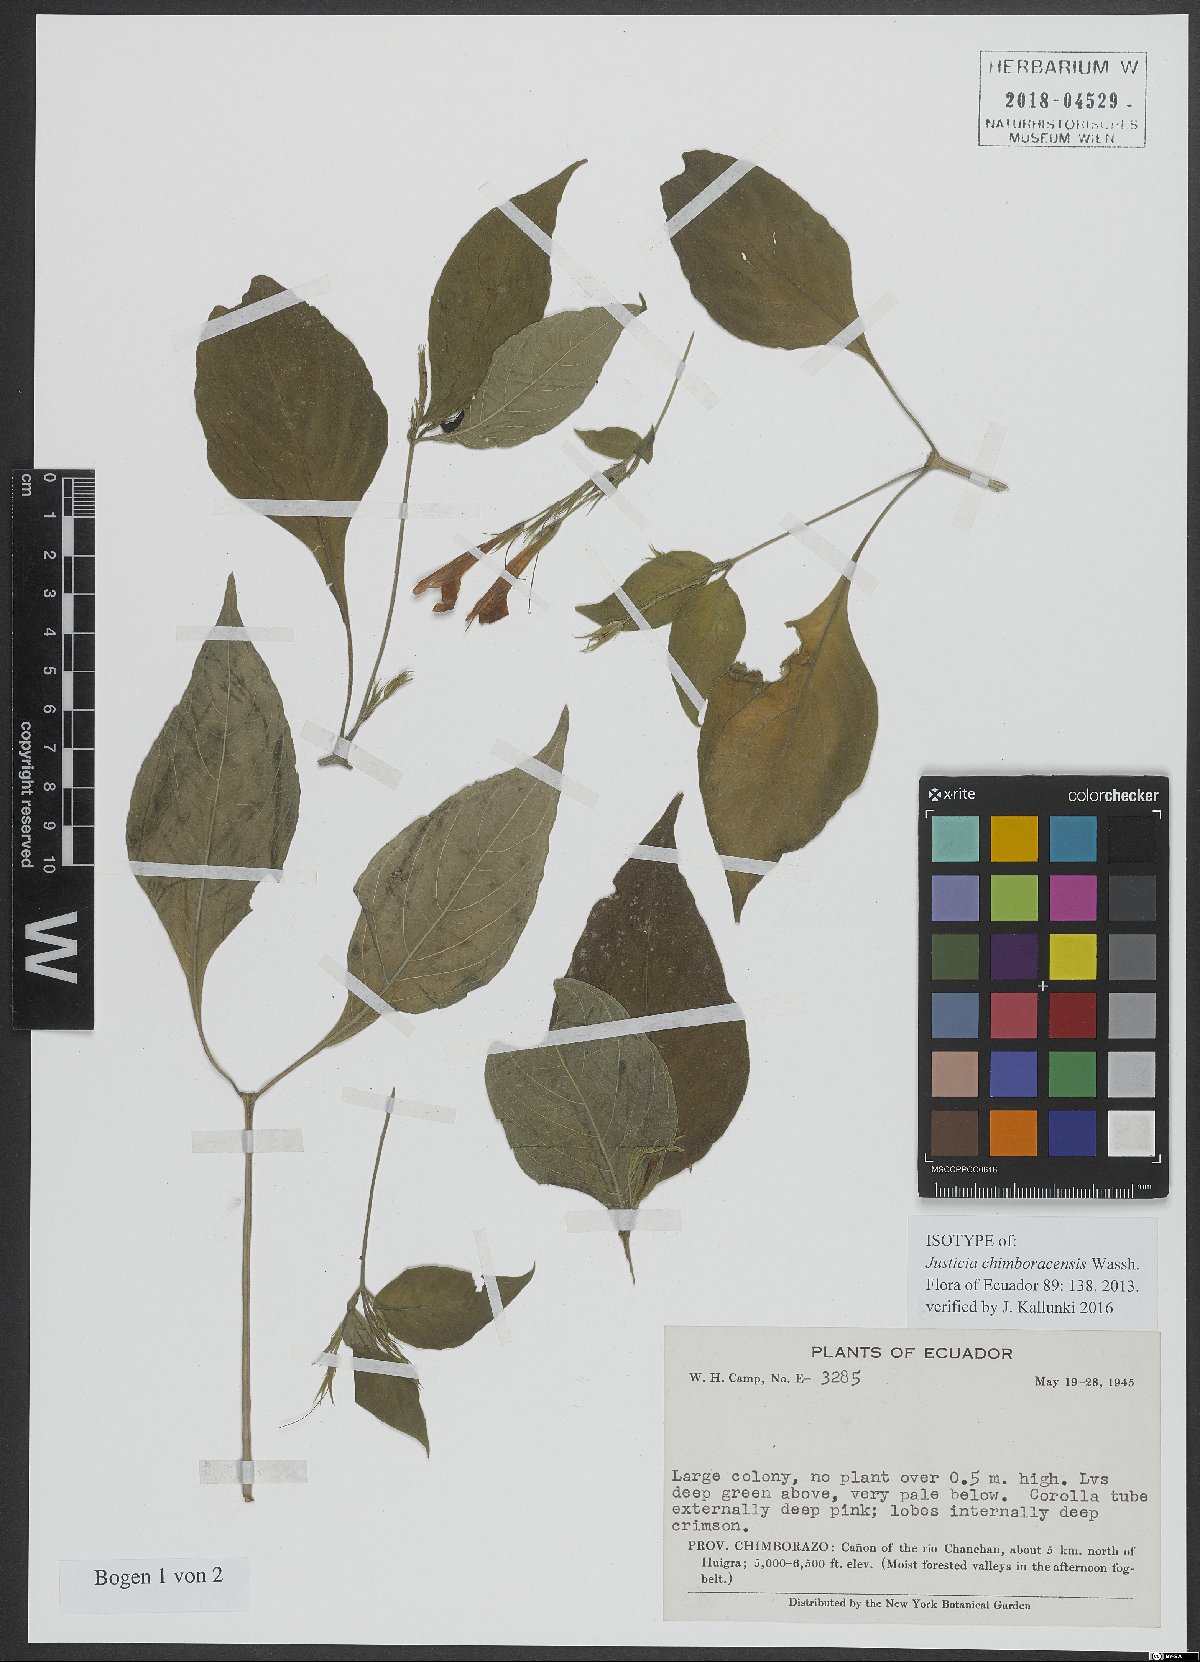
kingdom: Plantae
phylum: Tracheophyta
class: Magnoliopsida
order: Fabales
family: Fabaceae
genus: Tachigali
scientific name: Tachigali candelabrum
